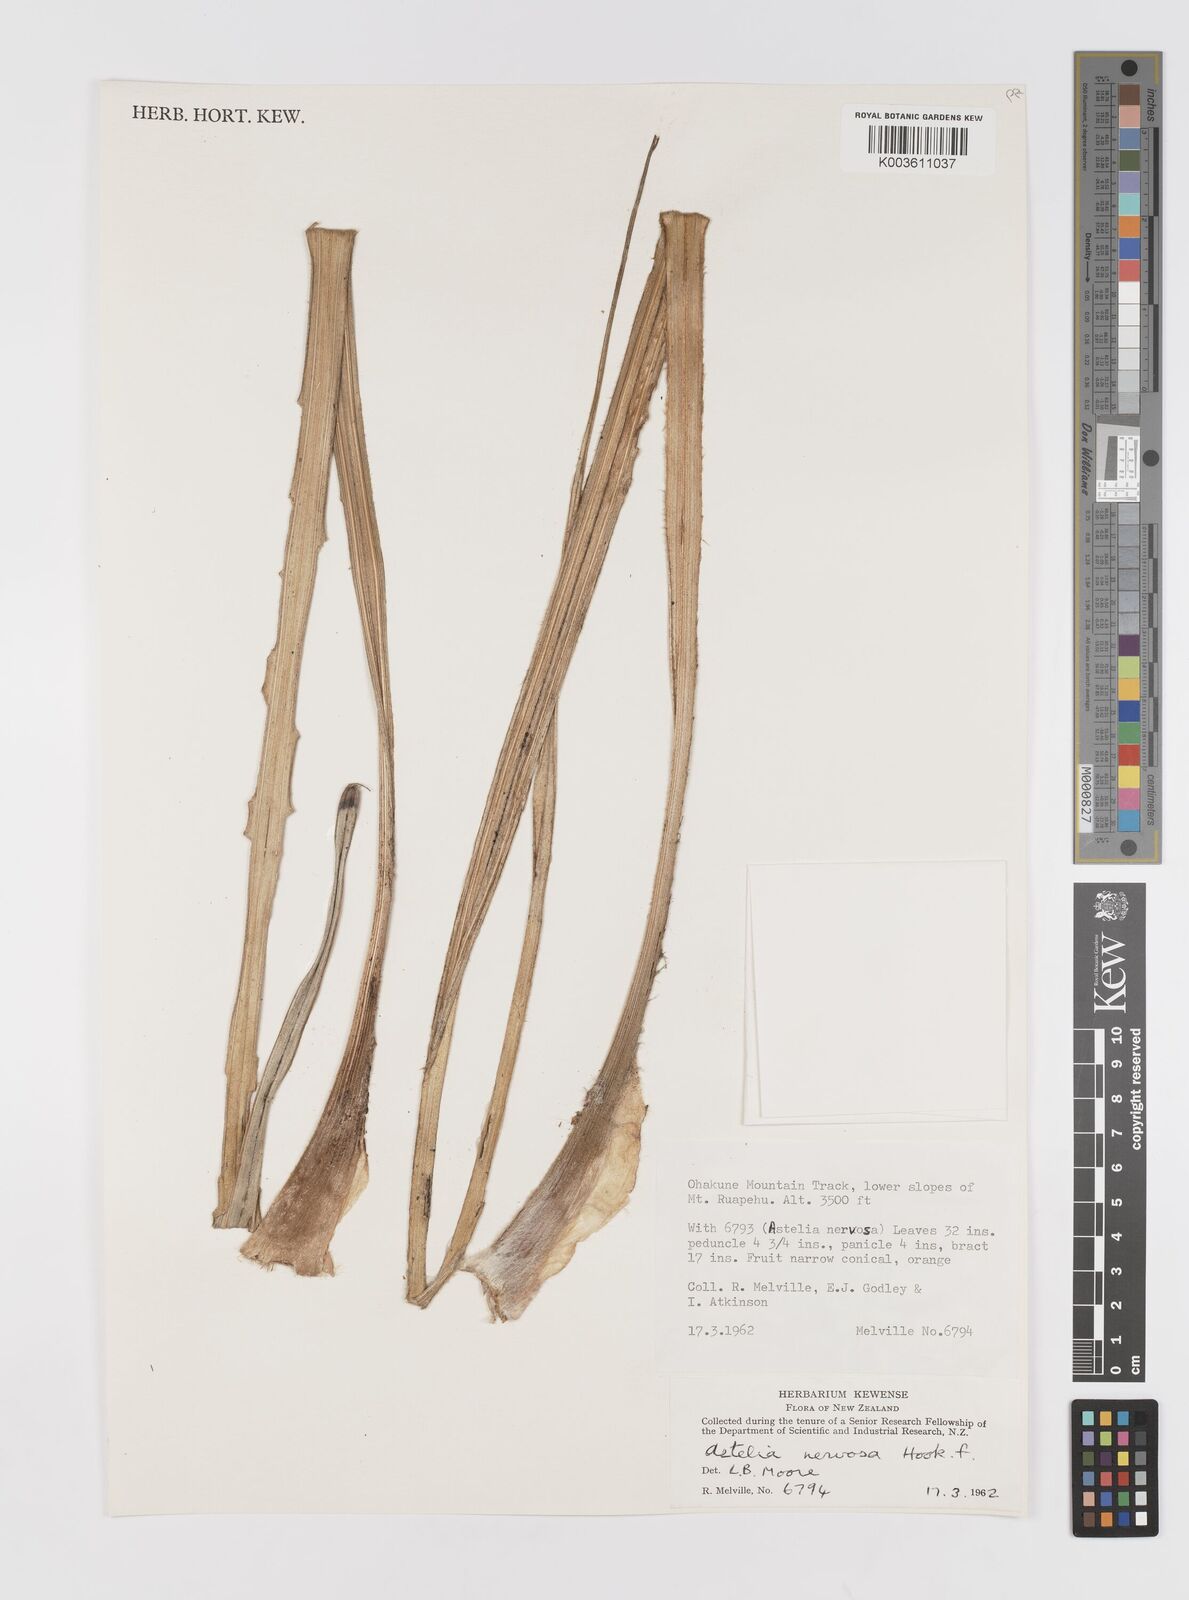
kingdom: Plantae
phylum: Tracheophyta
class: Liliopsida
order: Asparagales
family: Asteliaceae
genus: Astelia
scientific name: Astelia nervosa
